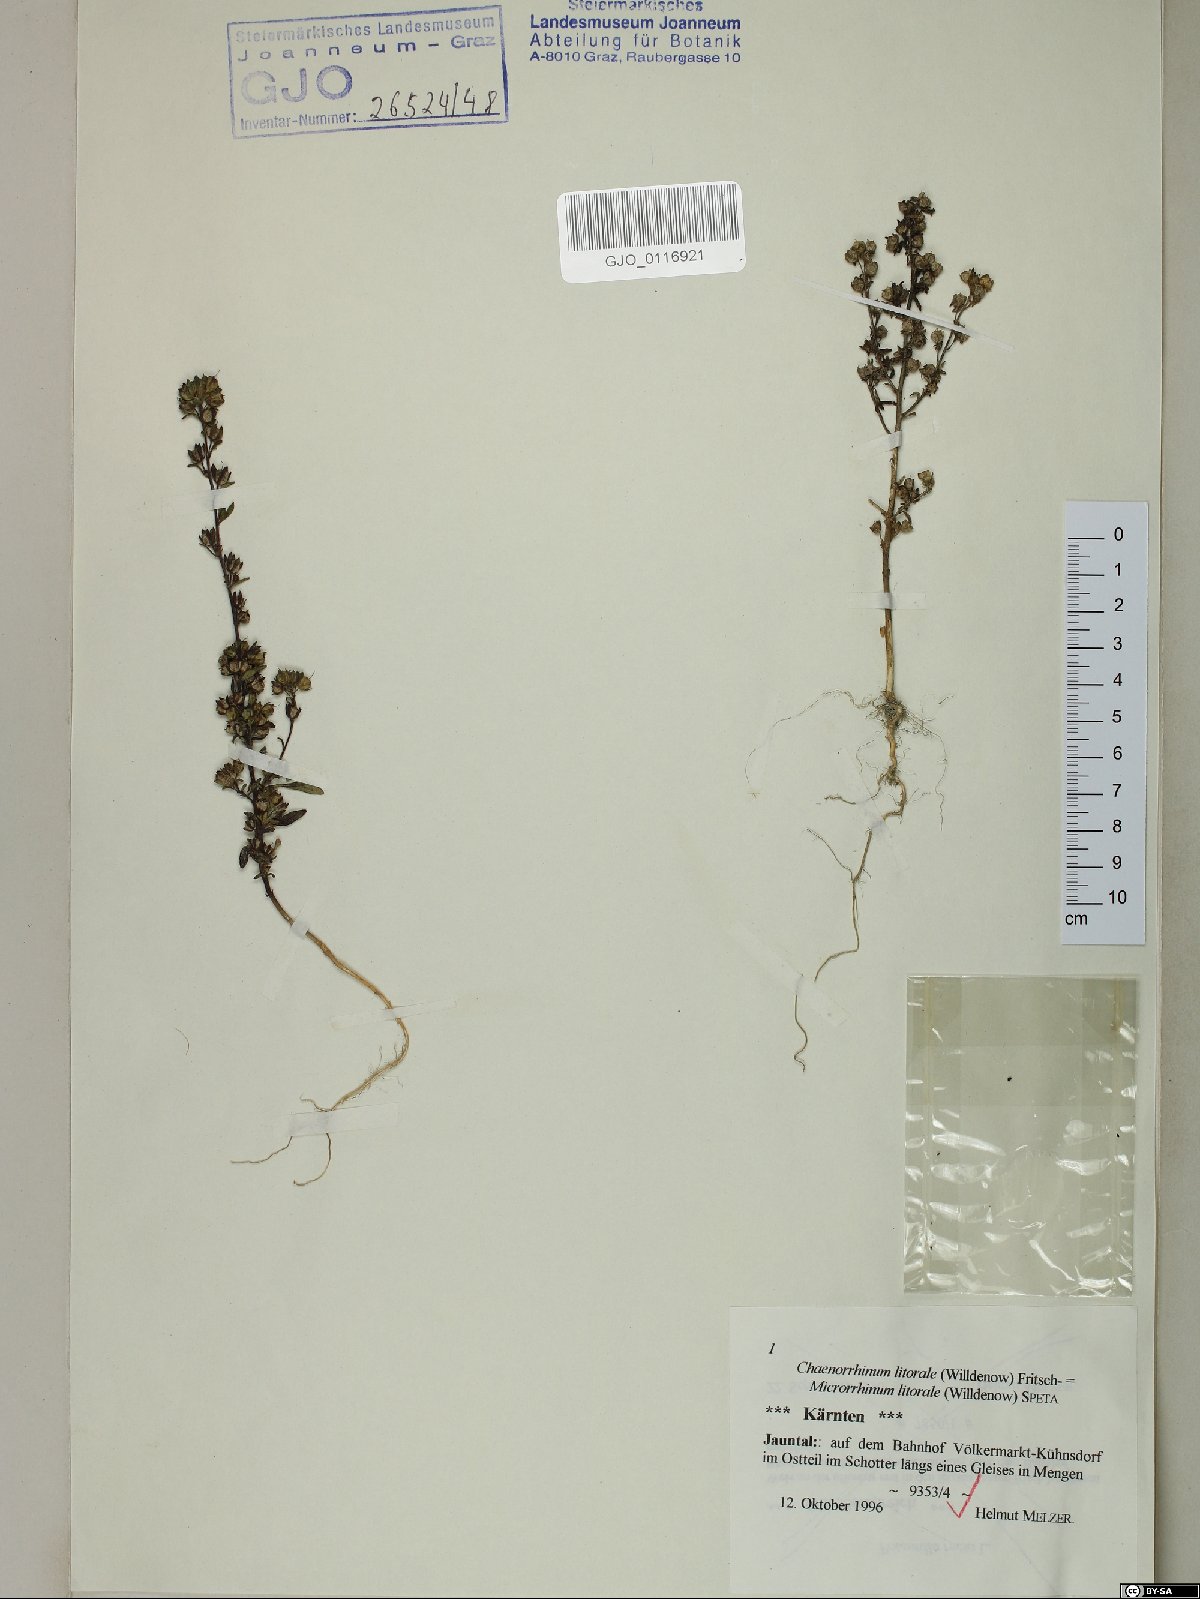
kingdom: Plantae
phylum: Tracheophyta
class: Magnoliopsida
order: Lamiales
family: Plantaginaceae
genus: Chaenorhinum
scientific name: Chaenorhinum litorale
